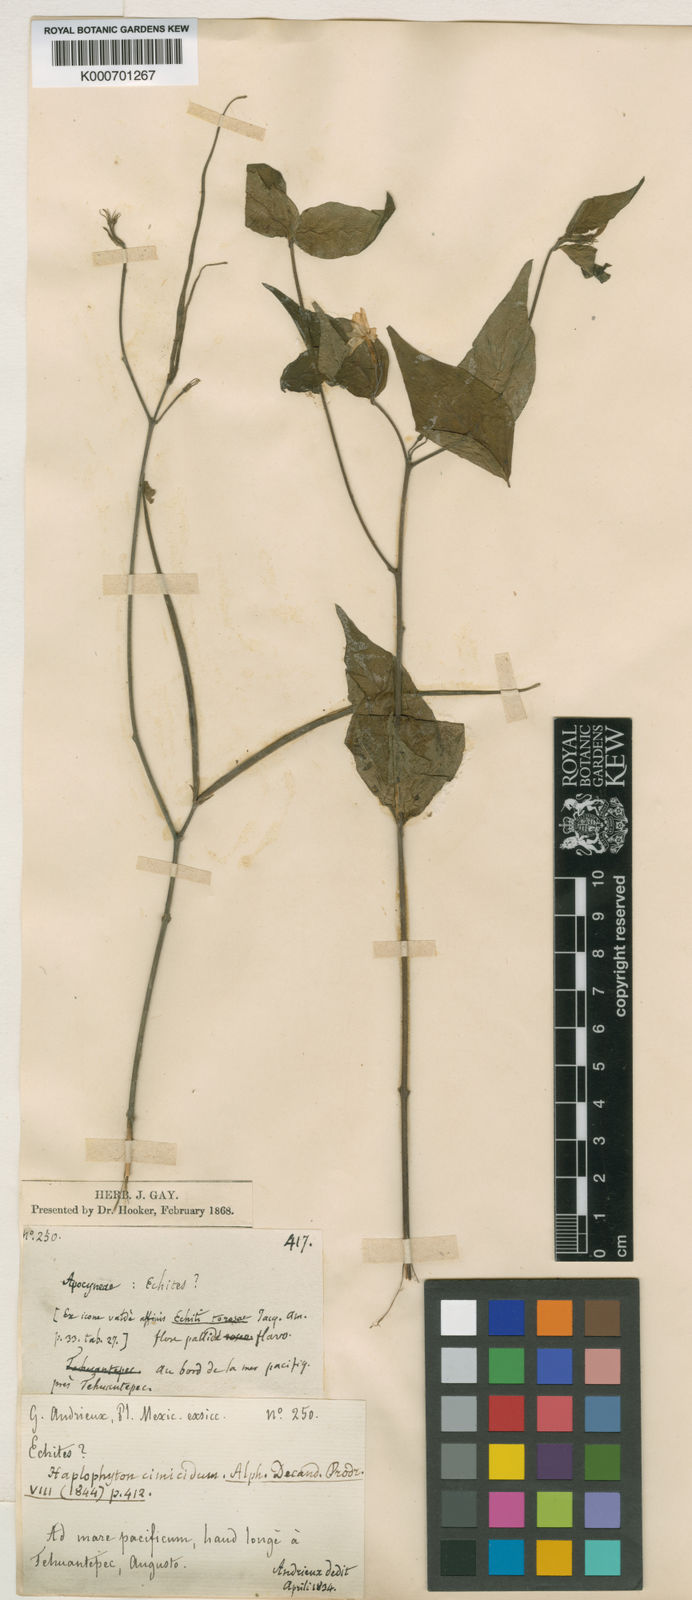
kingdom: Plantae
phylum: Tracheophyta
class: Magnoliopsida
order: Gentianales
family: Apocynaceae
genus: Haplophyton
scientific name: Haplophyton cimicidum
